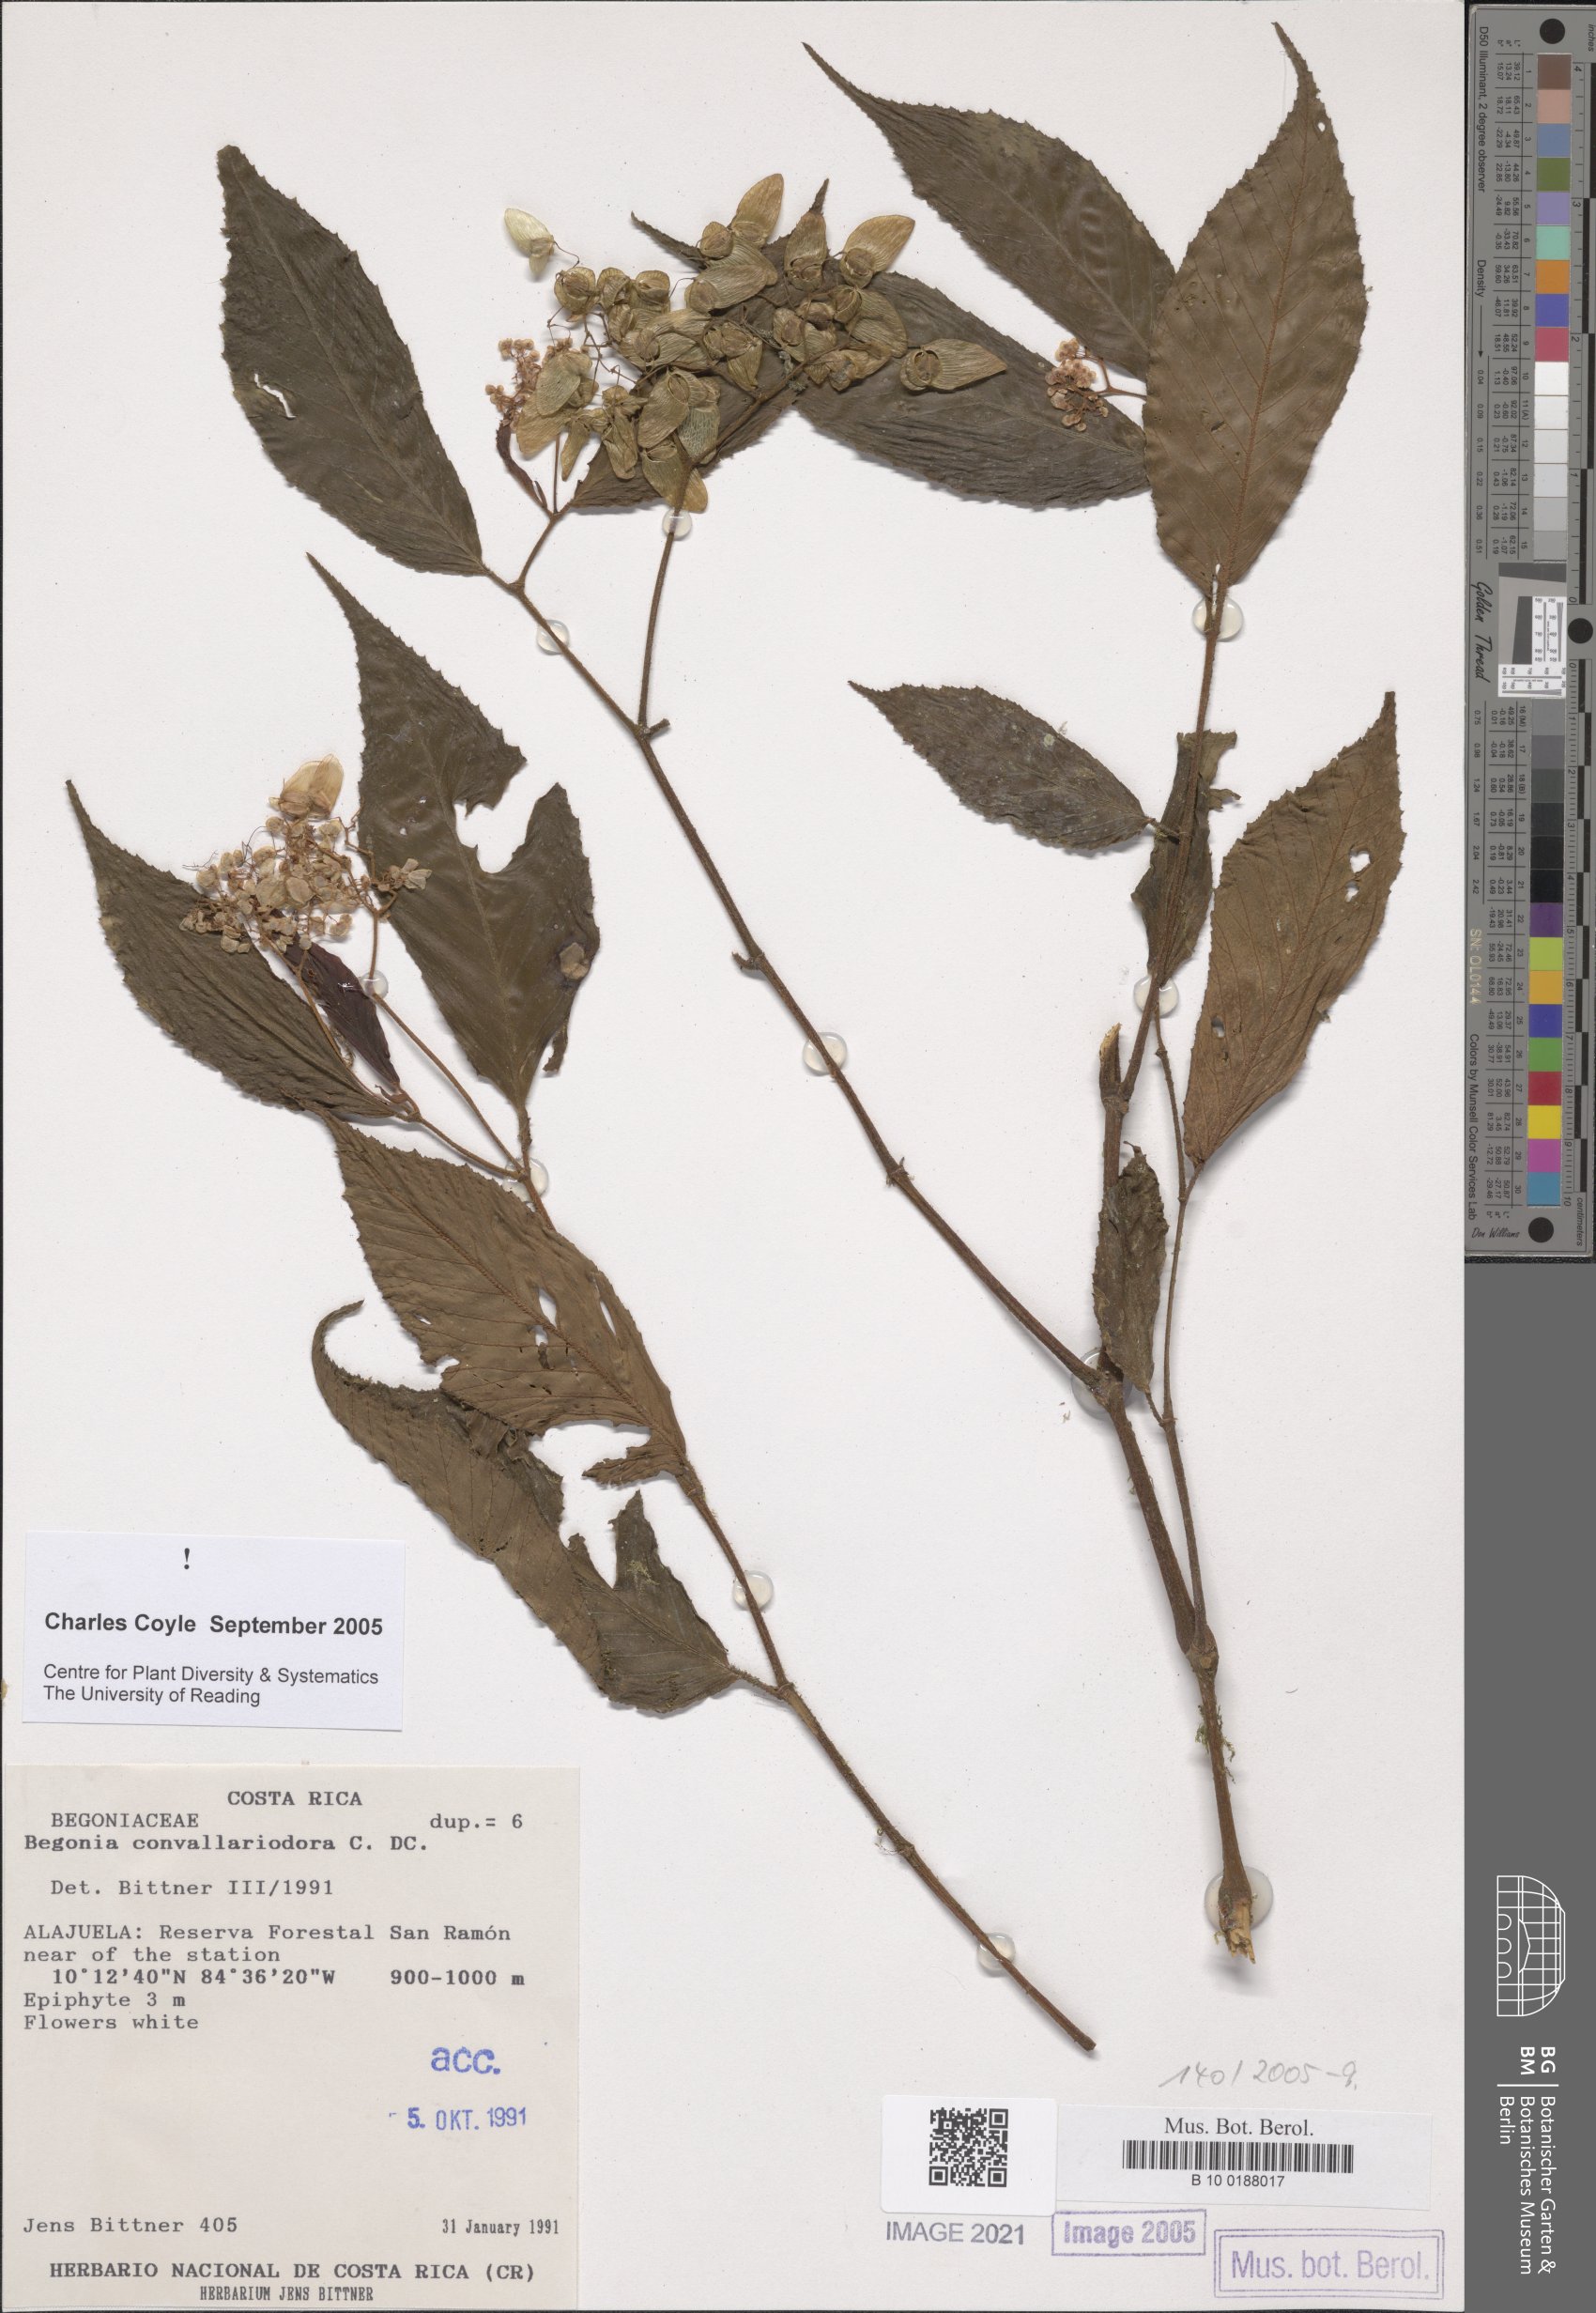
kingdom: Plantae
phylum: Tracheophyta
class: Magnoliopsida
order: Cucurbitales
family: Begoniaceae
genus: Begonia
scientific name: Begonia convallariodora
